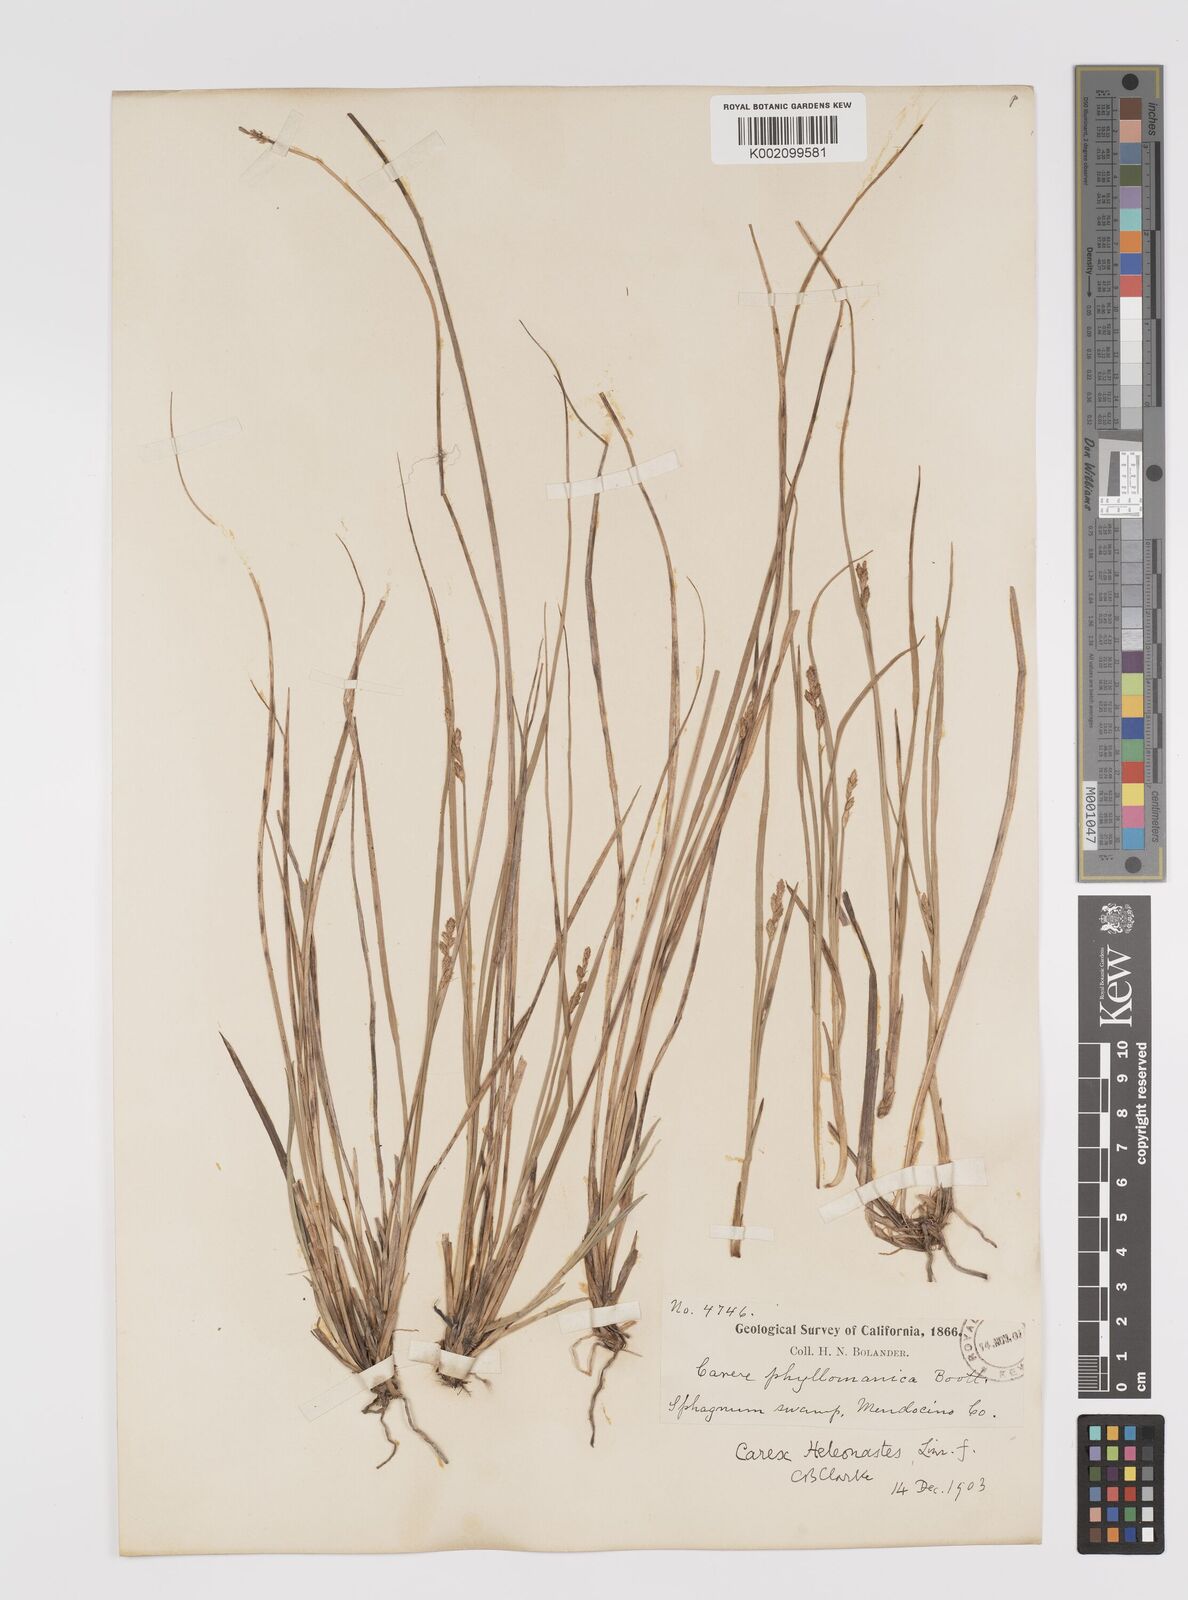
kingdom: Plantae
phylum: Tracheophyta
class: Liliopsida
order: Poales
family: Cyperaceae
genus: Carex
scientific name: Carex heleonastes
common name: Hudson bay sedge
